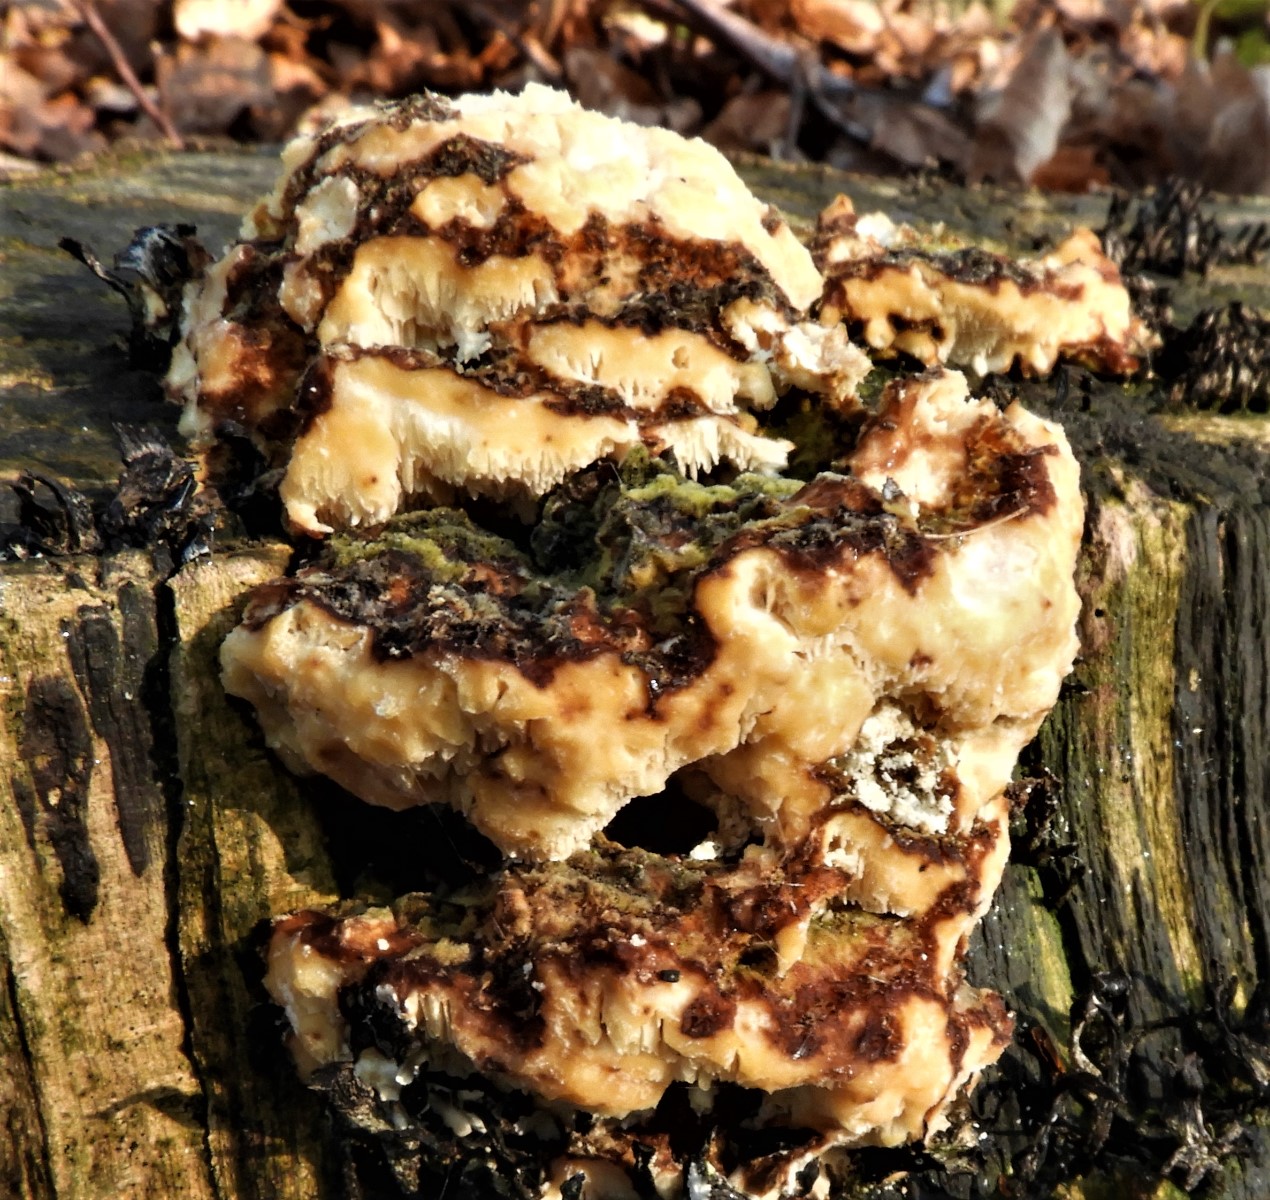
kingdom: Fungi
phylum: Basidiomycota
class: Agaricomycetes
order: Polyporales
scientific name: Polyporales
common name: poresvampordenen
